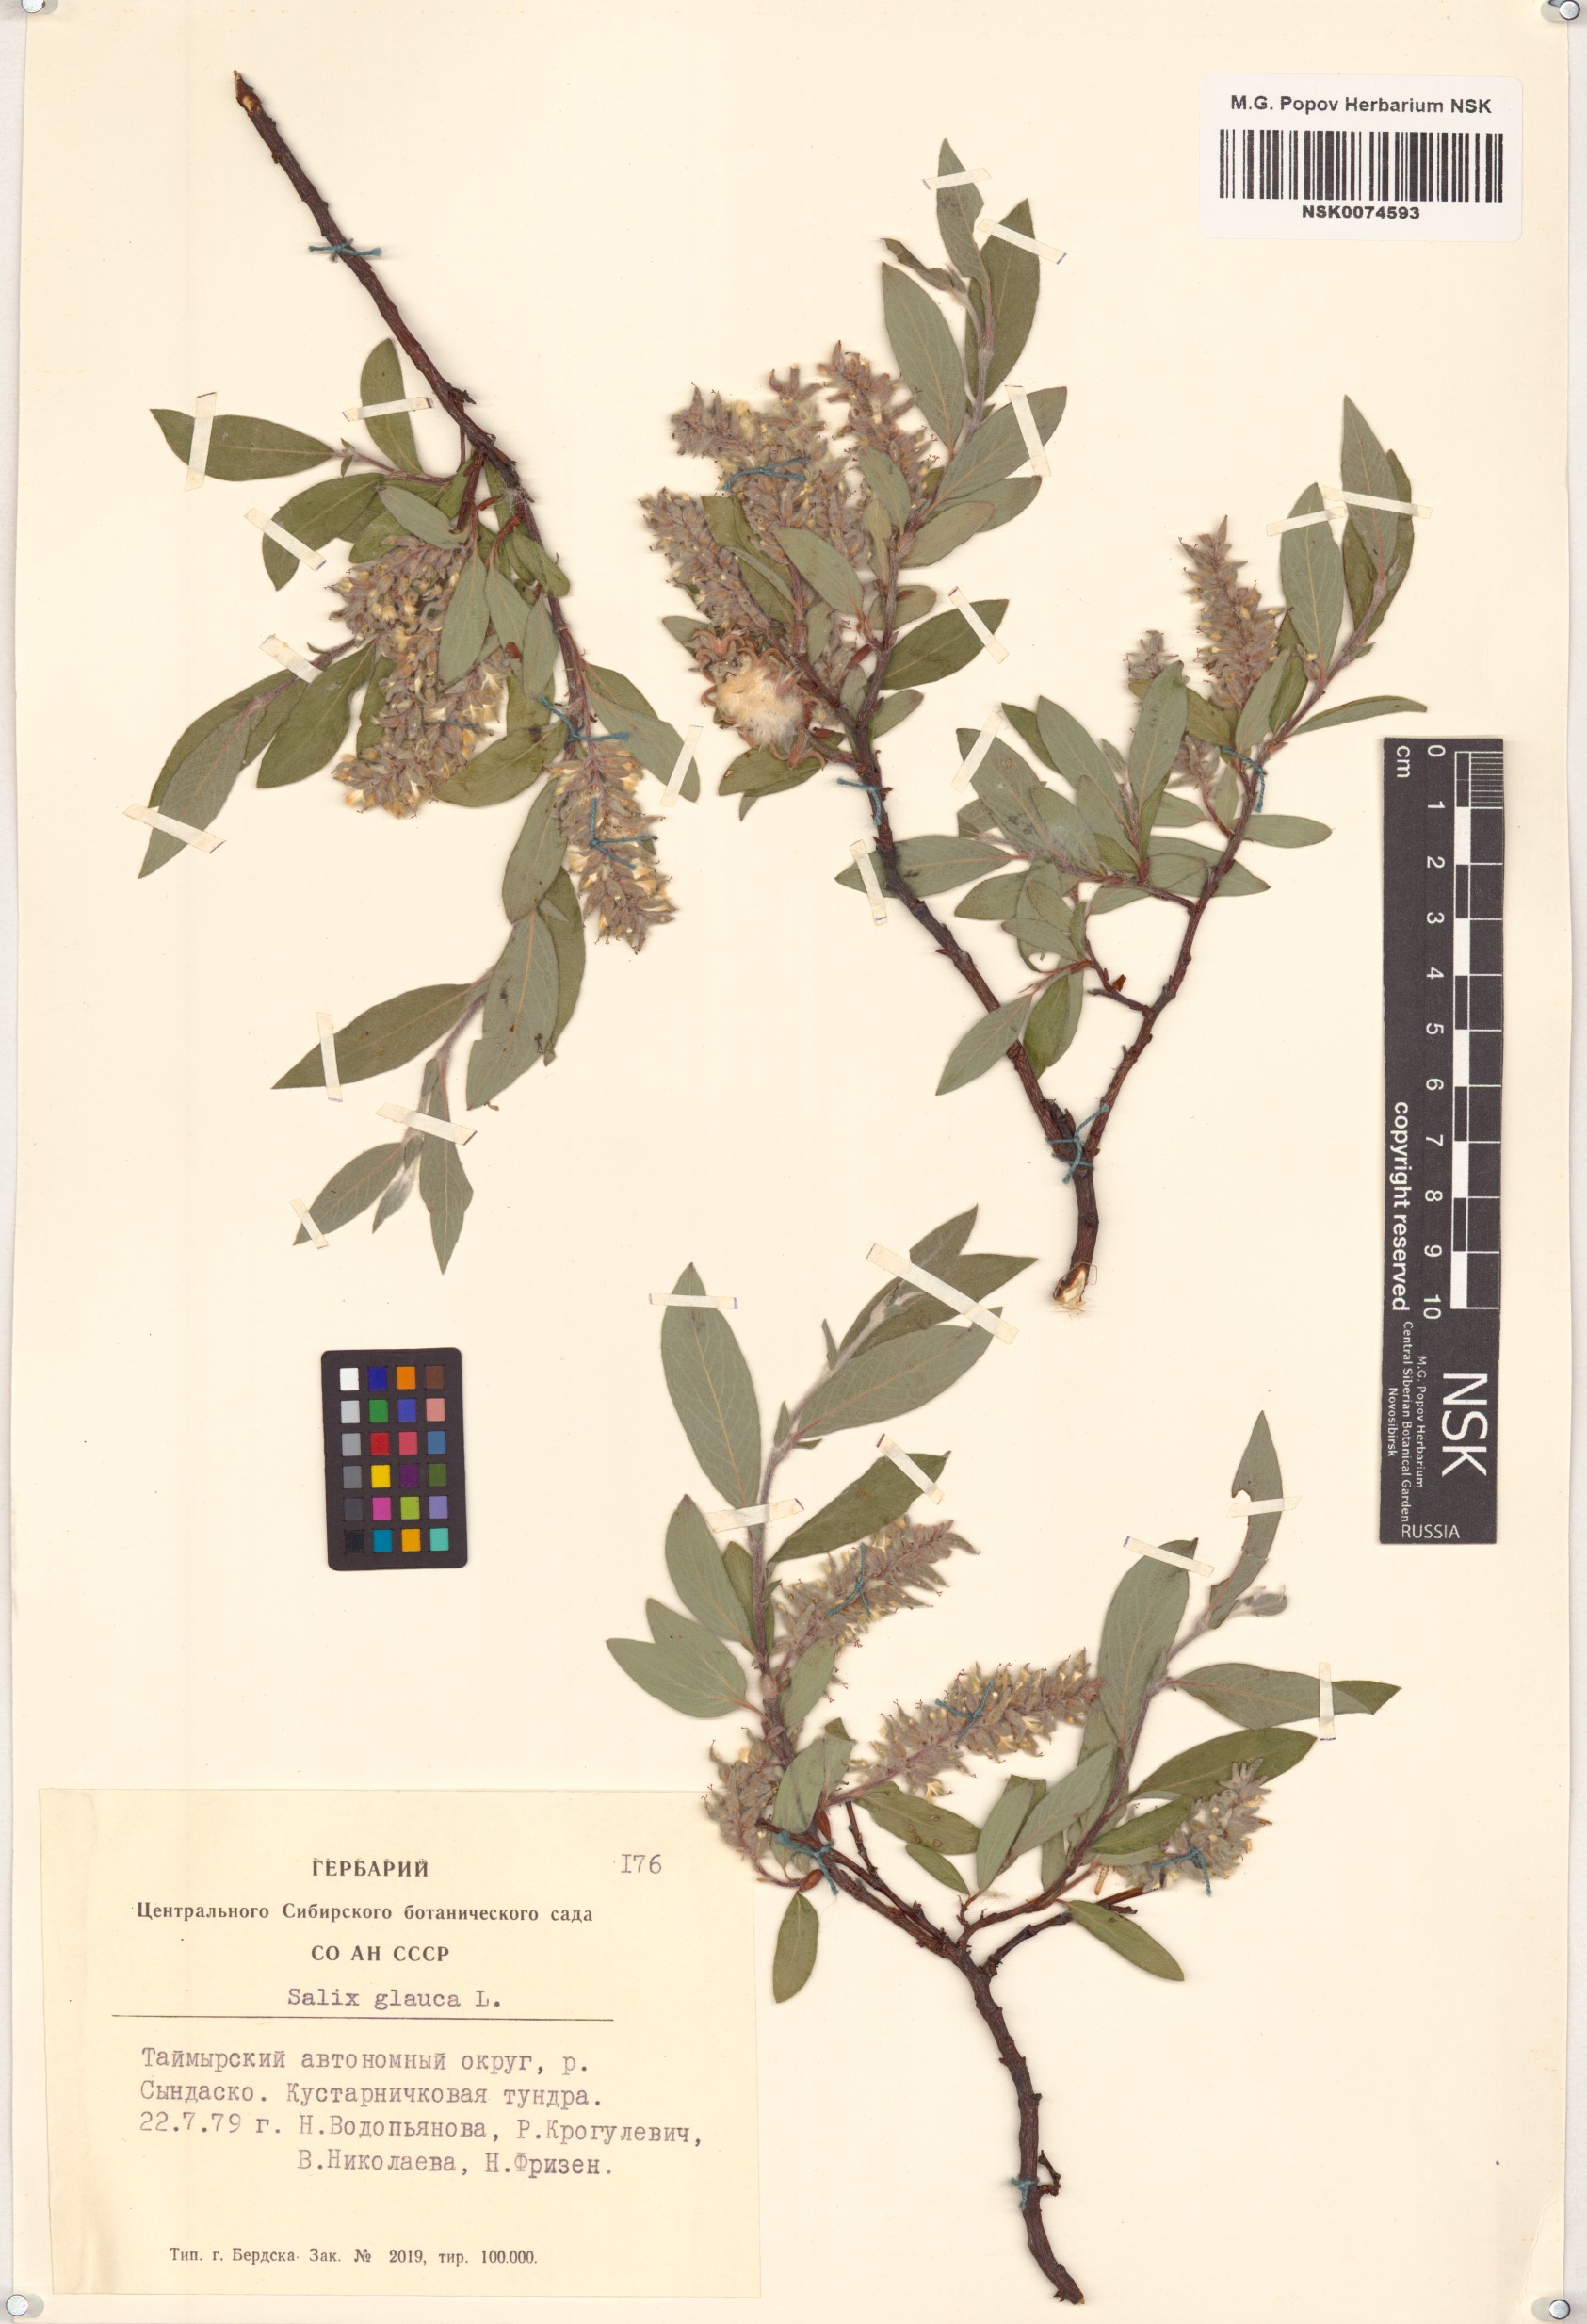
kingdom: Plantae
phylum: Tracheophyta
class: Magnoliopsida
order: Malpighiales
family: Salicaceae
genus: Salix
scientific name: Salix glauca
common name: Glaucous willow
